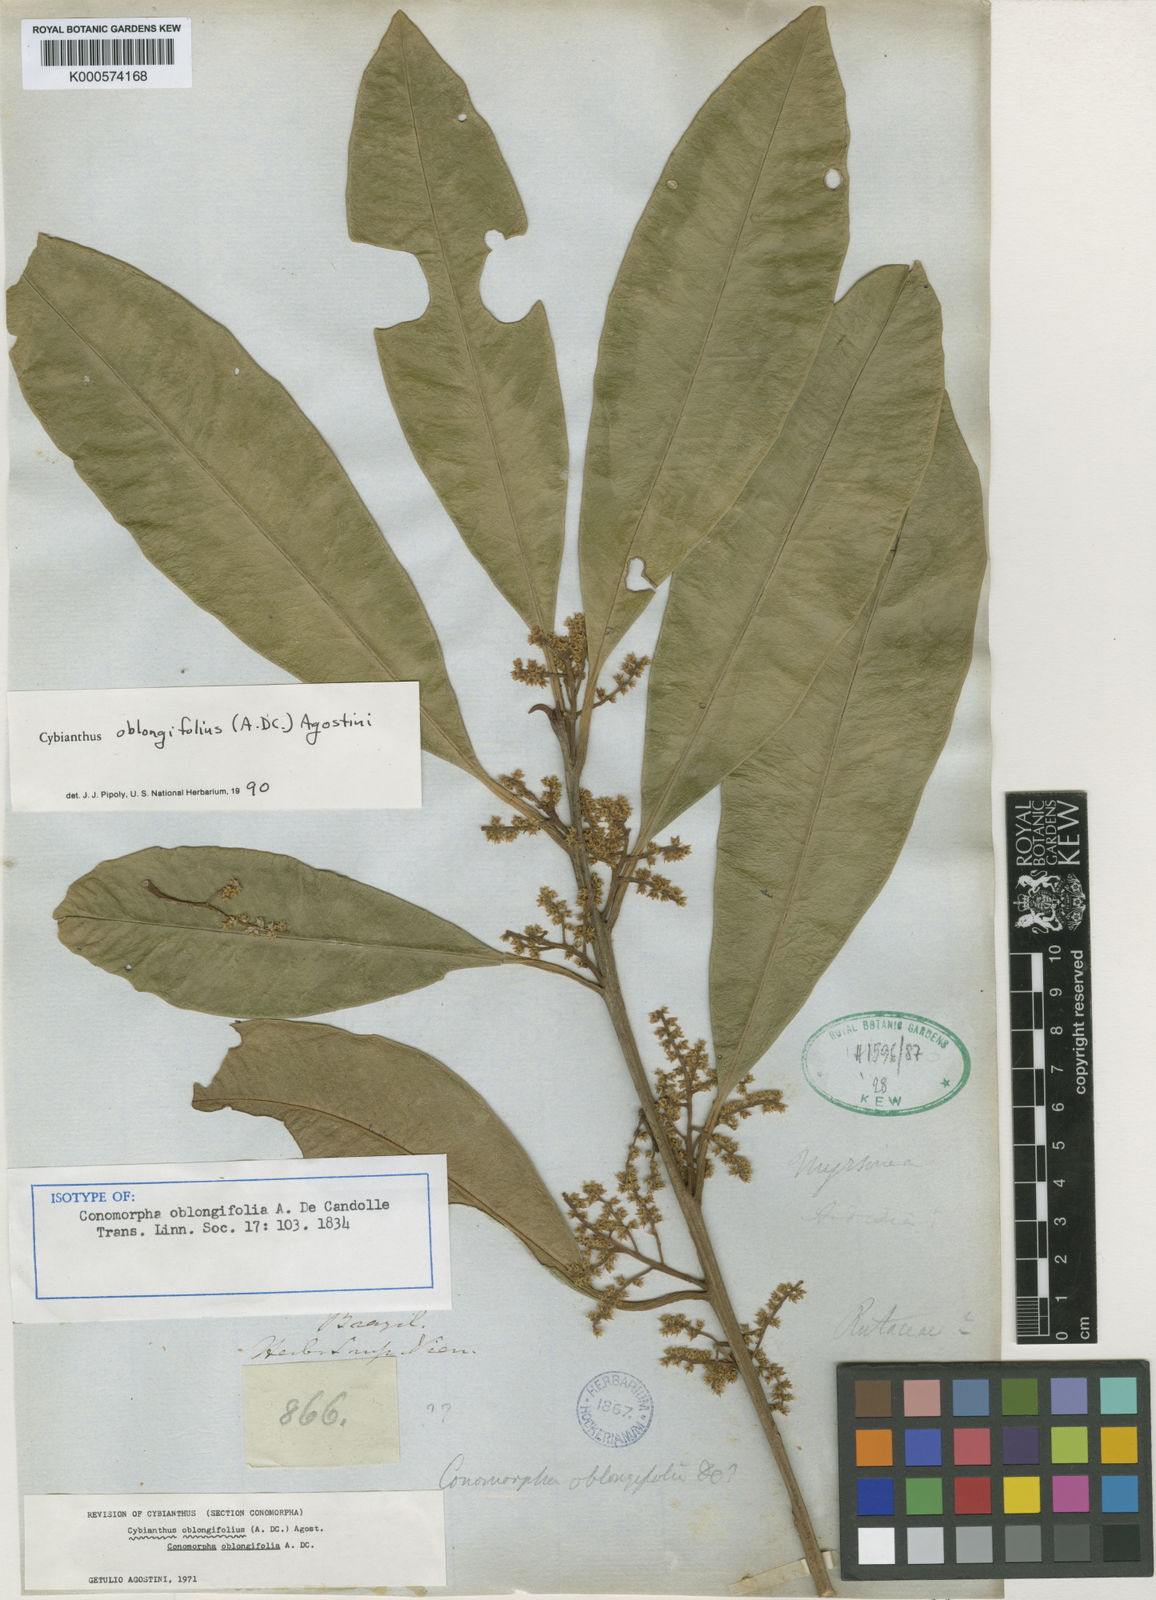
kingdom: Plantae
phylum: Tracheophyta
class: Magnoliopsida
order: Ericales
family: Primulaceae
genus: Cybianthus
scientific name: Cybianthus oblongifolius
